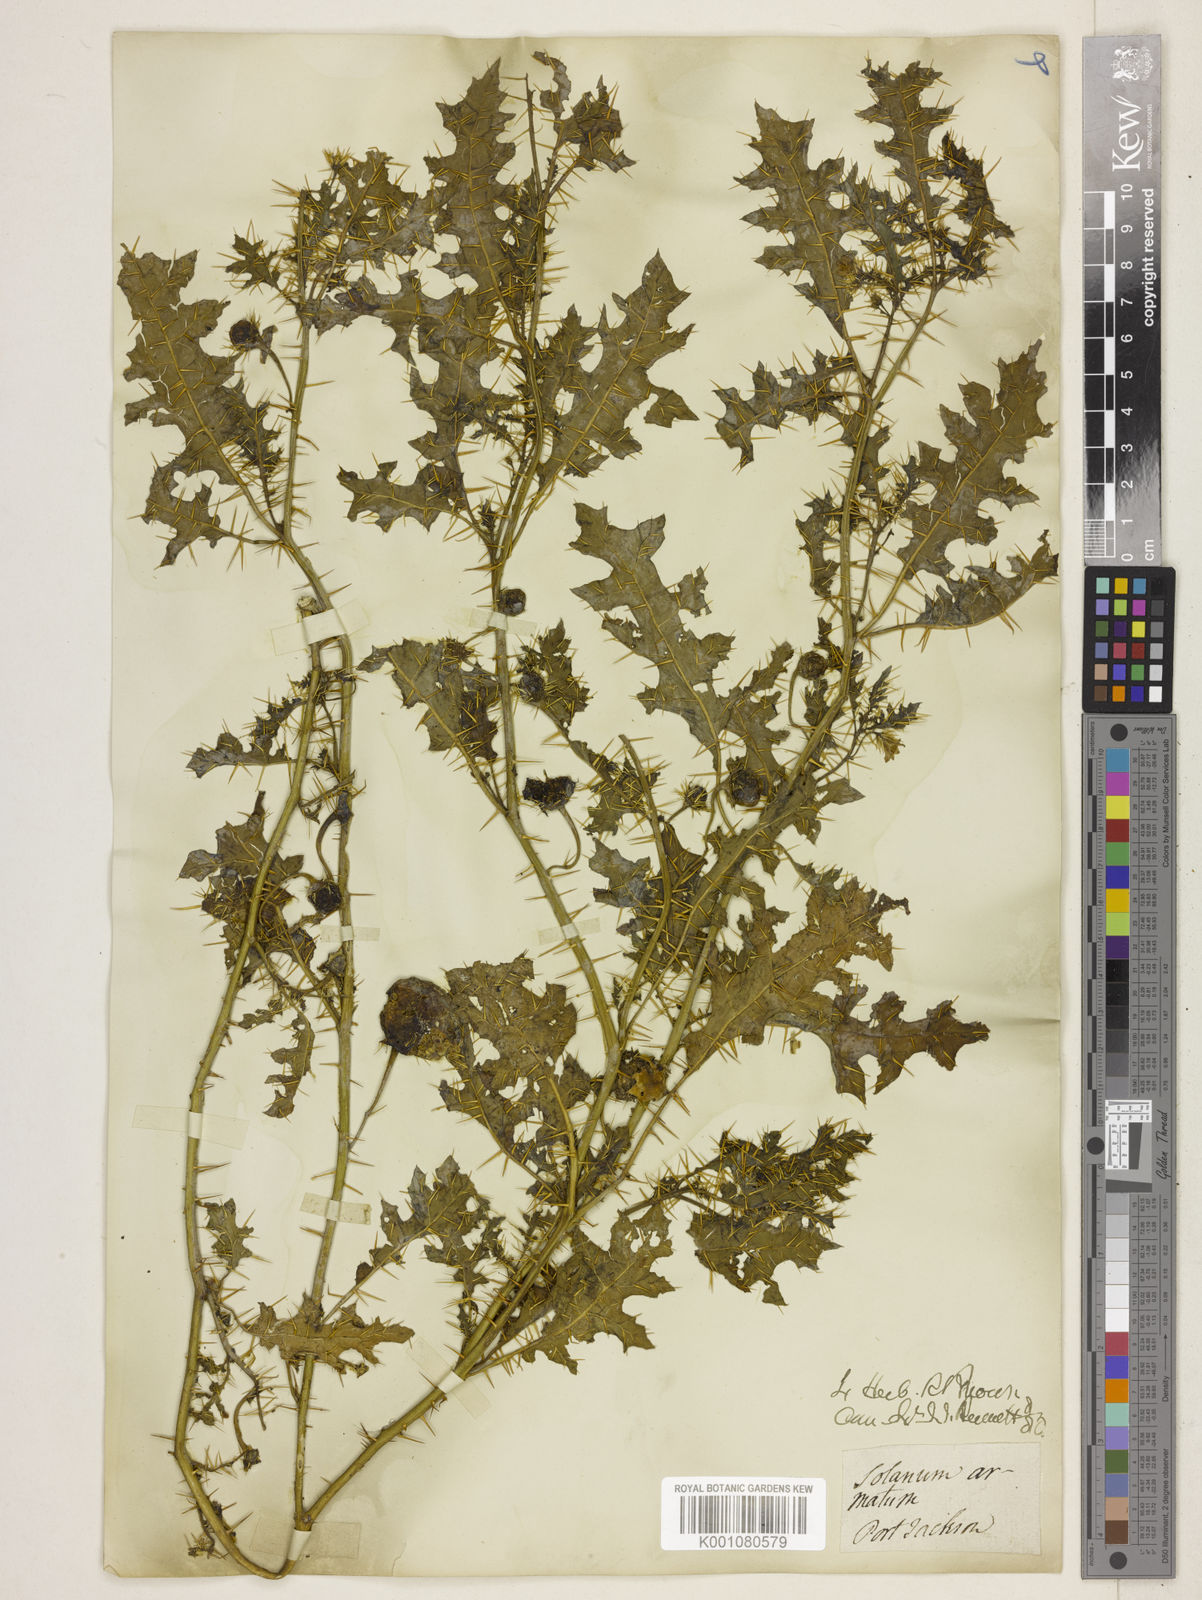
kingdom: Plantae
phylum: Tracheophyta
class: Magnoliopsida
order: Solanales
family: Solanaceae
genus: Solanum
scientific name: Solanum prinophyllum
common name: Forest nightshade
